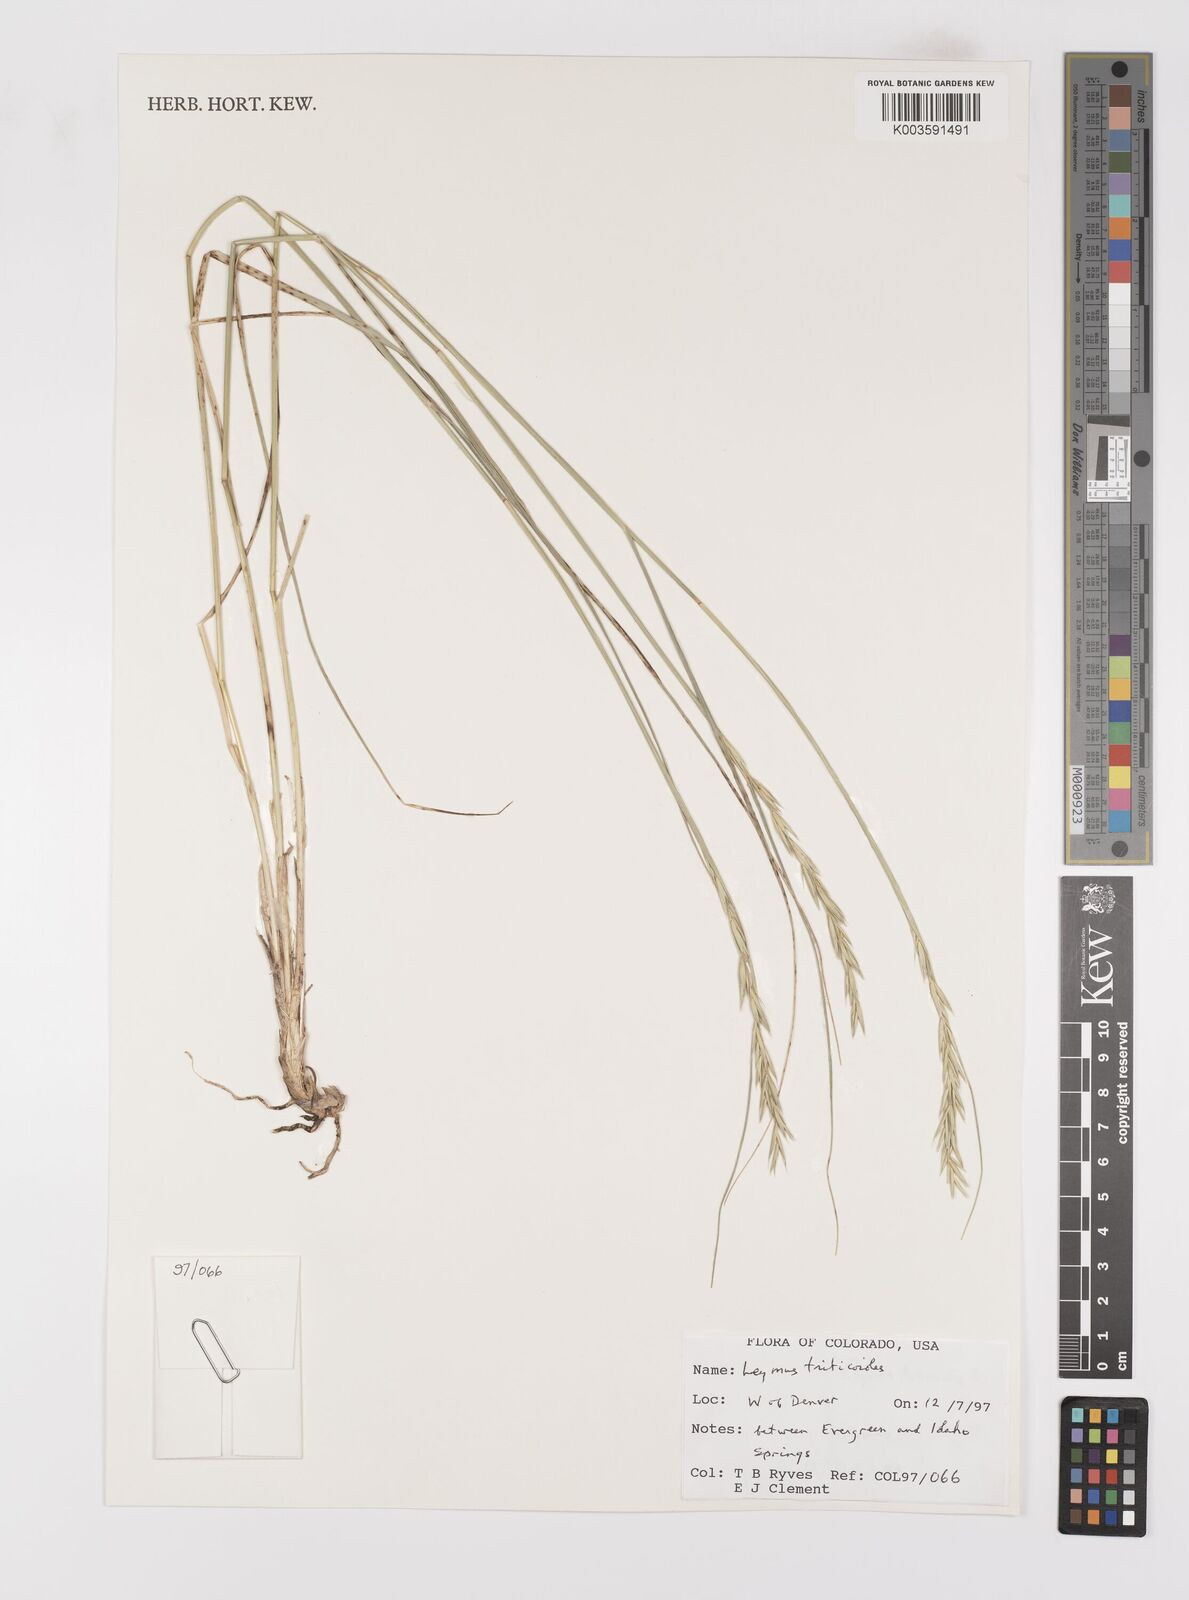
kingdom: Plantae
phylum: Tracheophyta
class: Liliopsida
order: Poales
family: Poaceae
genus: Leymus
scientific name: Leymus triticoides
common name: Beardless wild rye
